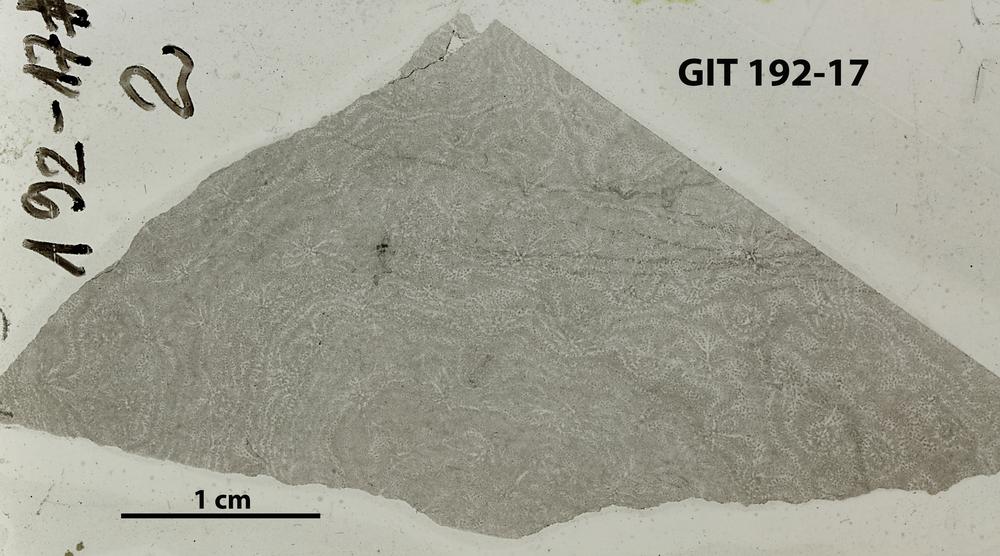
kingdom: Animalia
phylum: Porifera
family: Clathrodictyidae
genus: Clathrodictyon
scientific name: Clathrodictyon kudriavzevi
